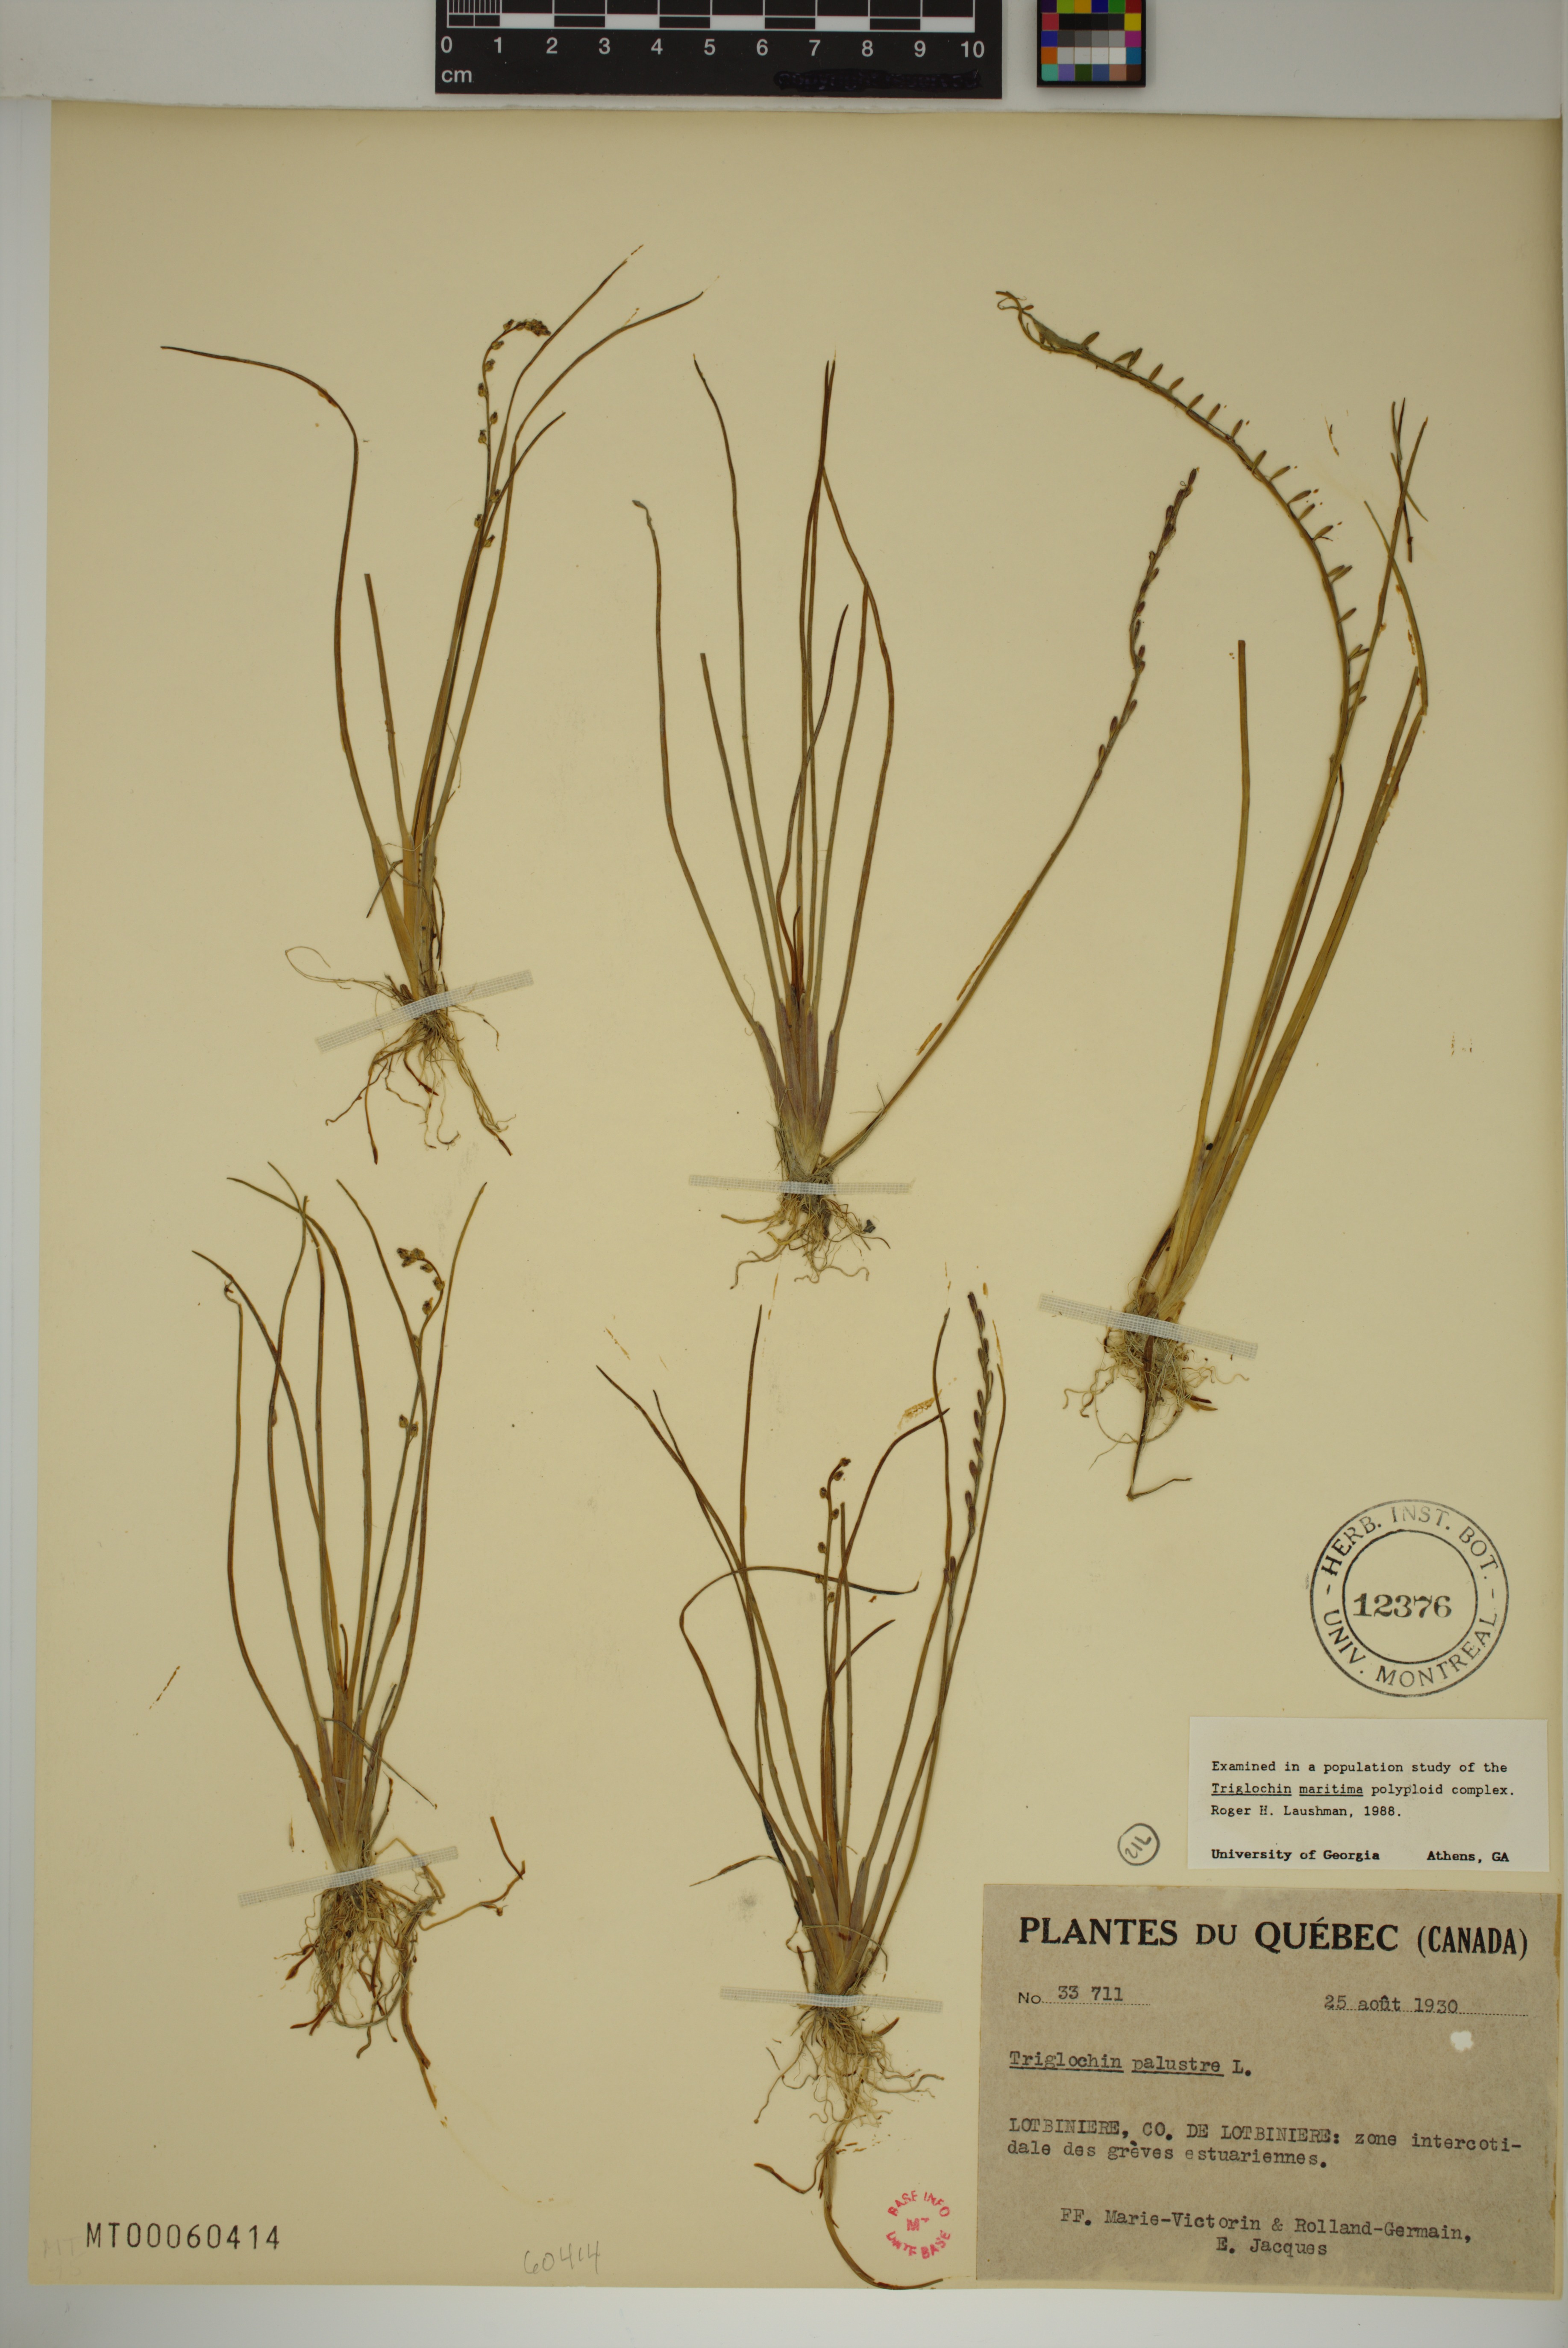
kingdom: Plantae
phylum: Tracheophyta
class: Liliopsida
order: Alismatales
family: Juncaginaceae
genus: Triglochin
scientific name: Triglochin palustris
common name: Marsh arrowgrass
